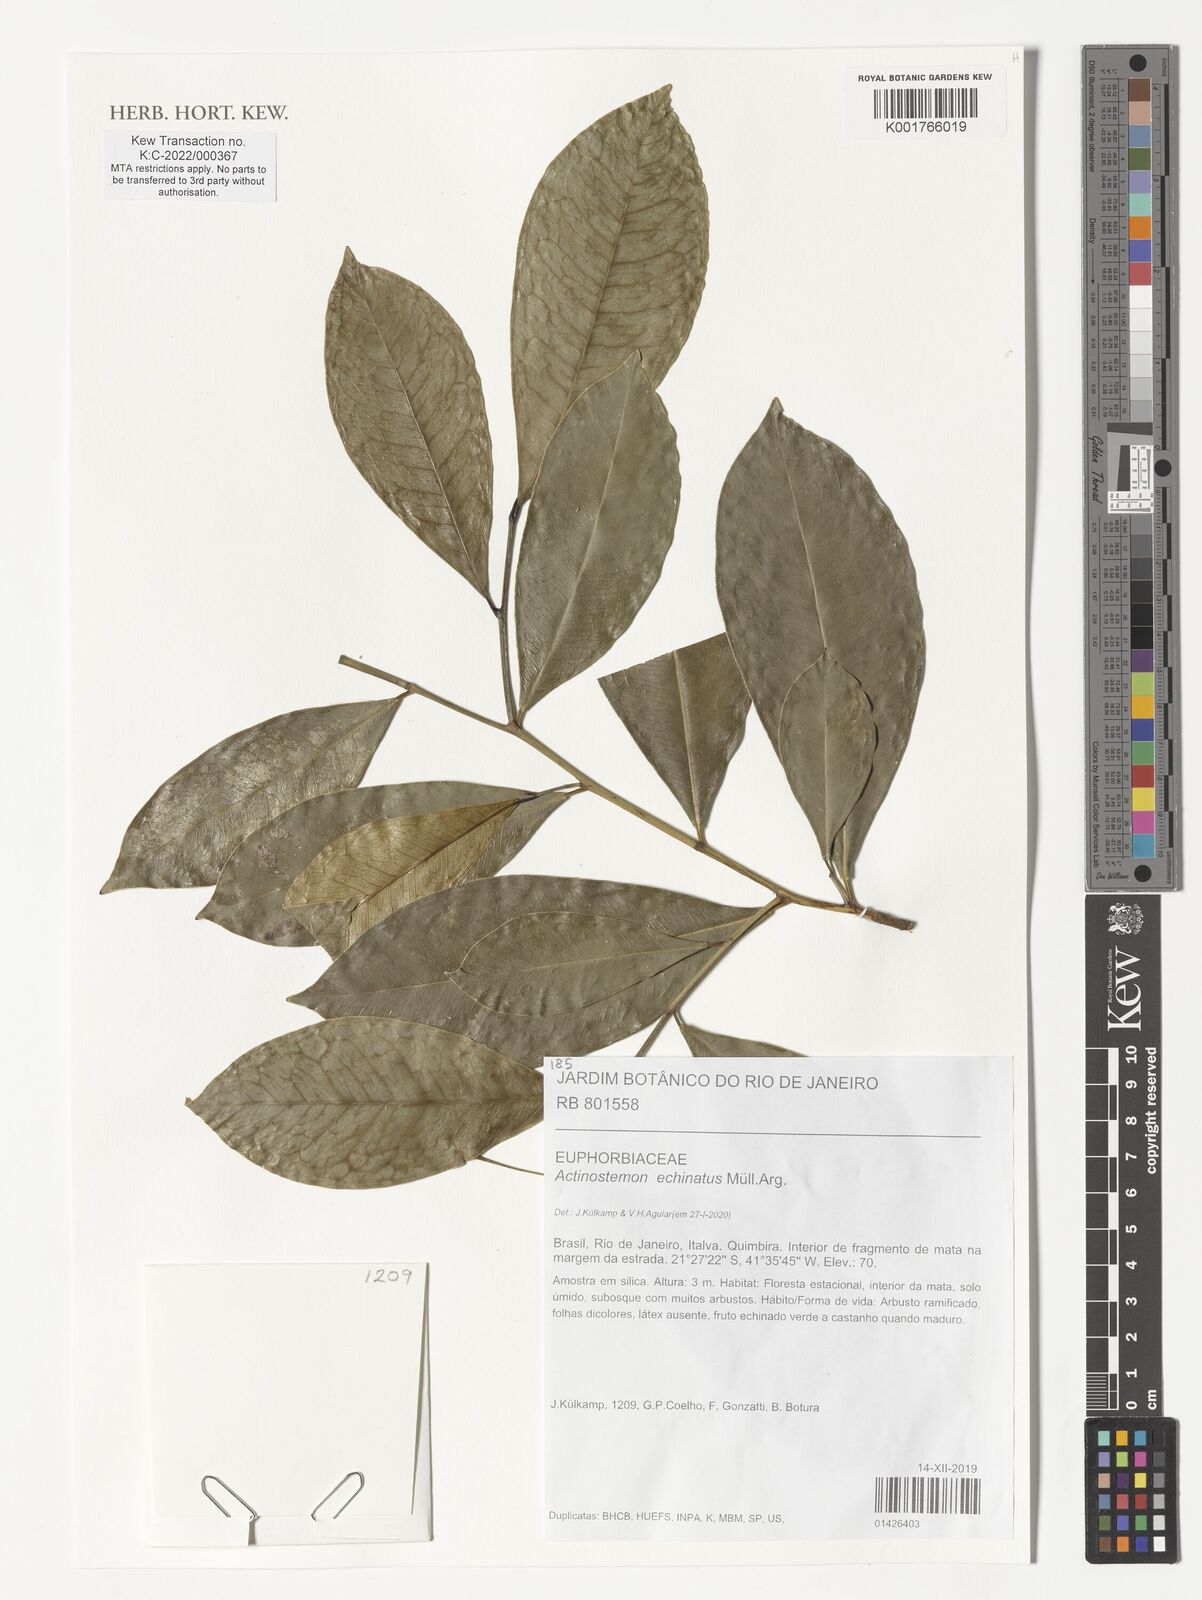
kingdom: Plantae
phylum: Tracheophyta
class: Magnoliopsida
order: Malpighiales
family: Euphorbiaceae
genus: Actinostemon
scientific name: Actinostemon echinatus
